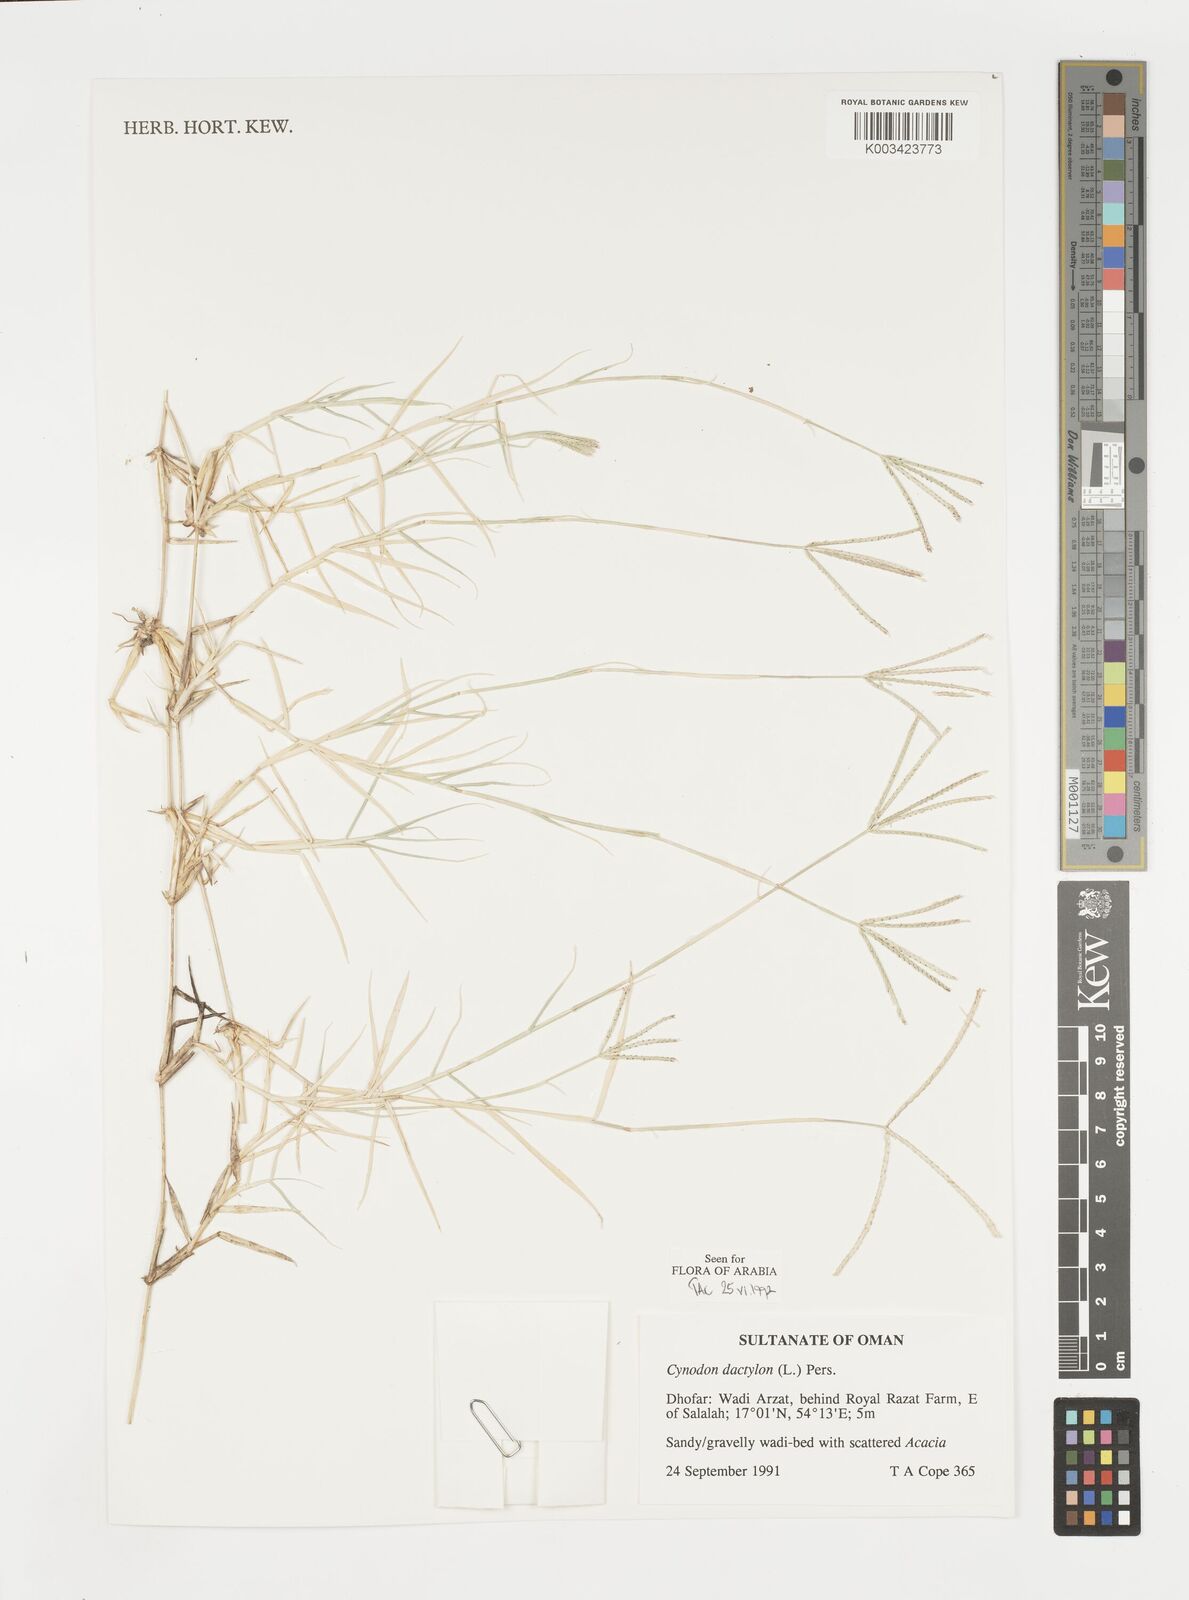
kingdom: Plantae
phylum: Tracheophyta
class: Liliopsida
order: Poales
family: Poaceae
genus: Cynodon
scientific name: Cynodon dactylon
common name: Bermuda grass
